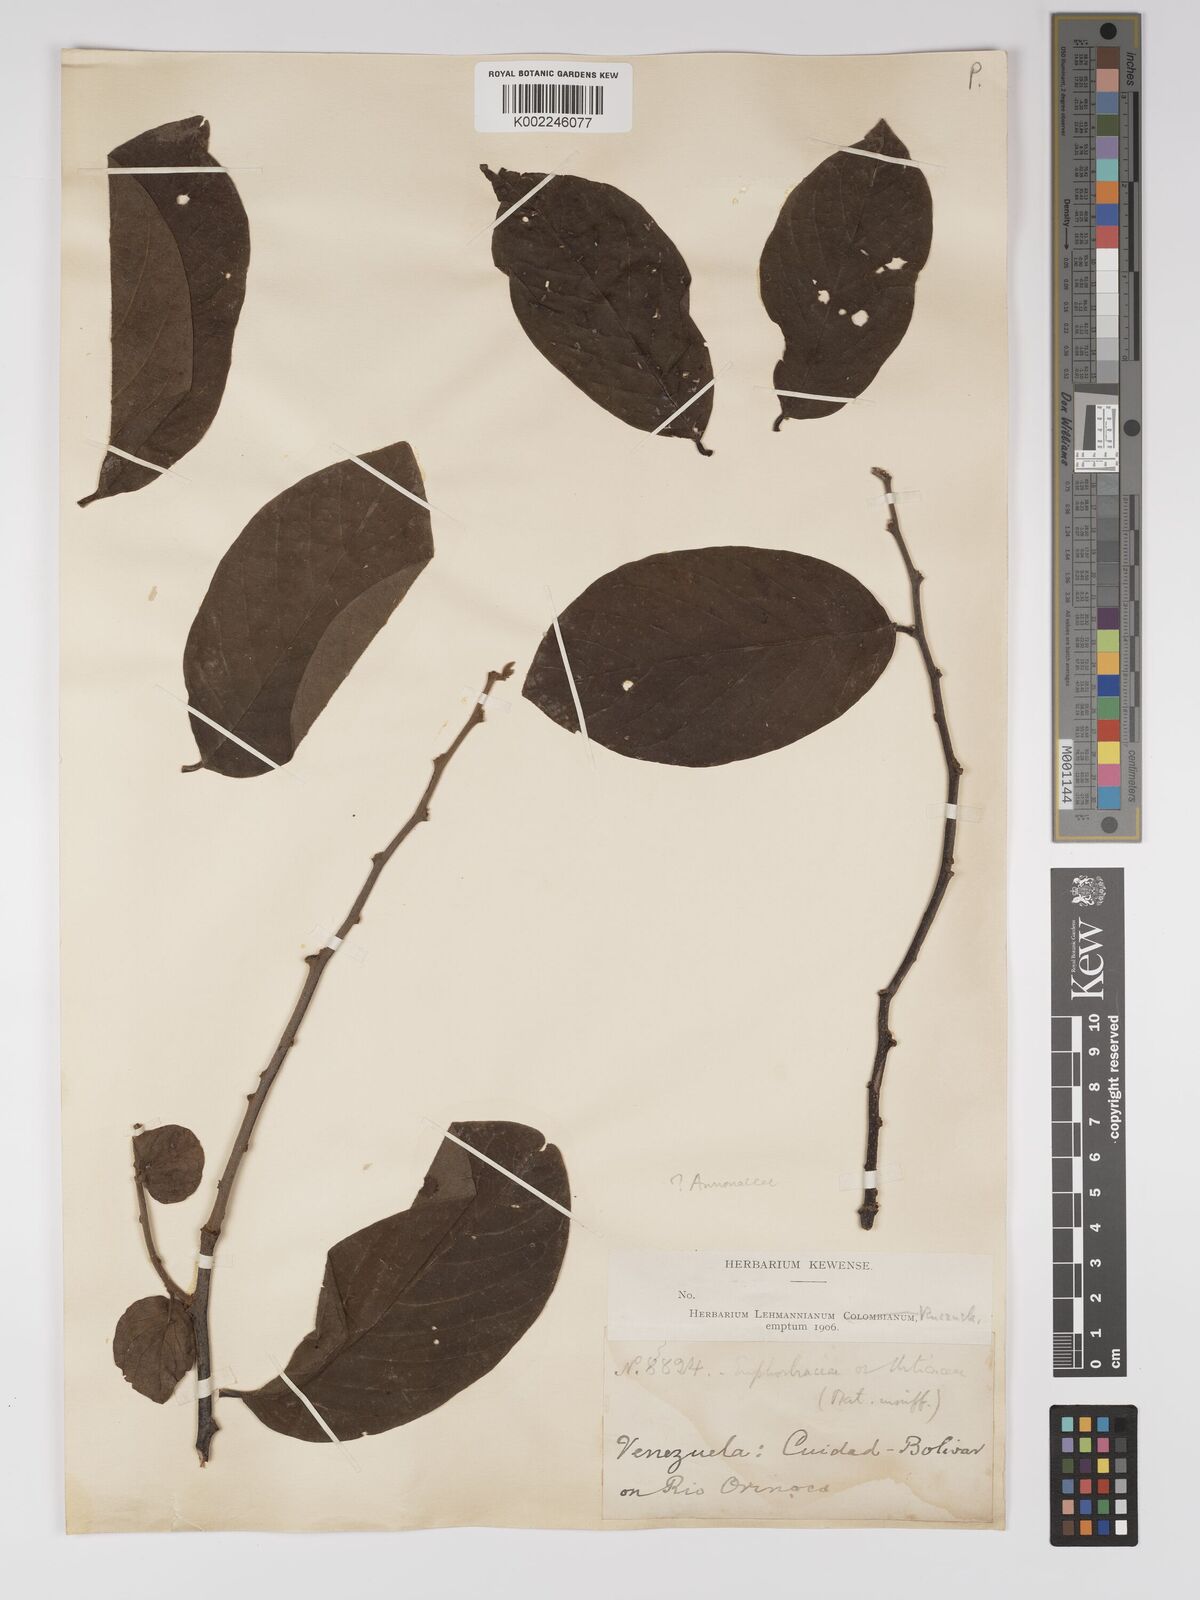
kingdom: Plantae
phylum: Tracheophyta
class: Magnoliopsida
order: Malpighiales
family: Euphorbiaceae
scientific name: Euphorbiaceae
